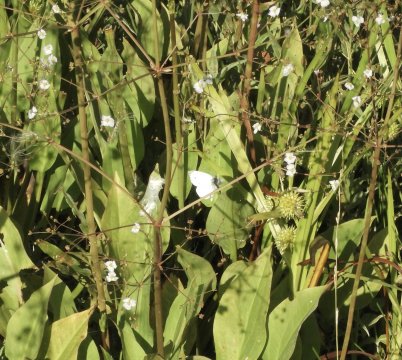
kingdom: Animalia
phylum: Arthropoda
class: Insecta
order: Lepidoptera
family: Pieridae
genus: Pieris
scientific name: Pieris napi
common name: Green-veined White
